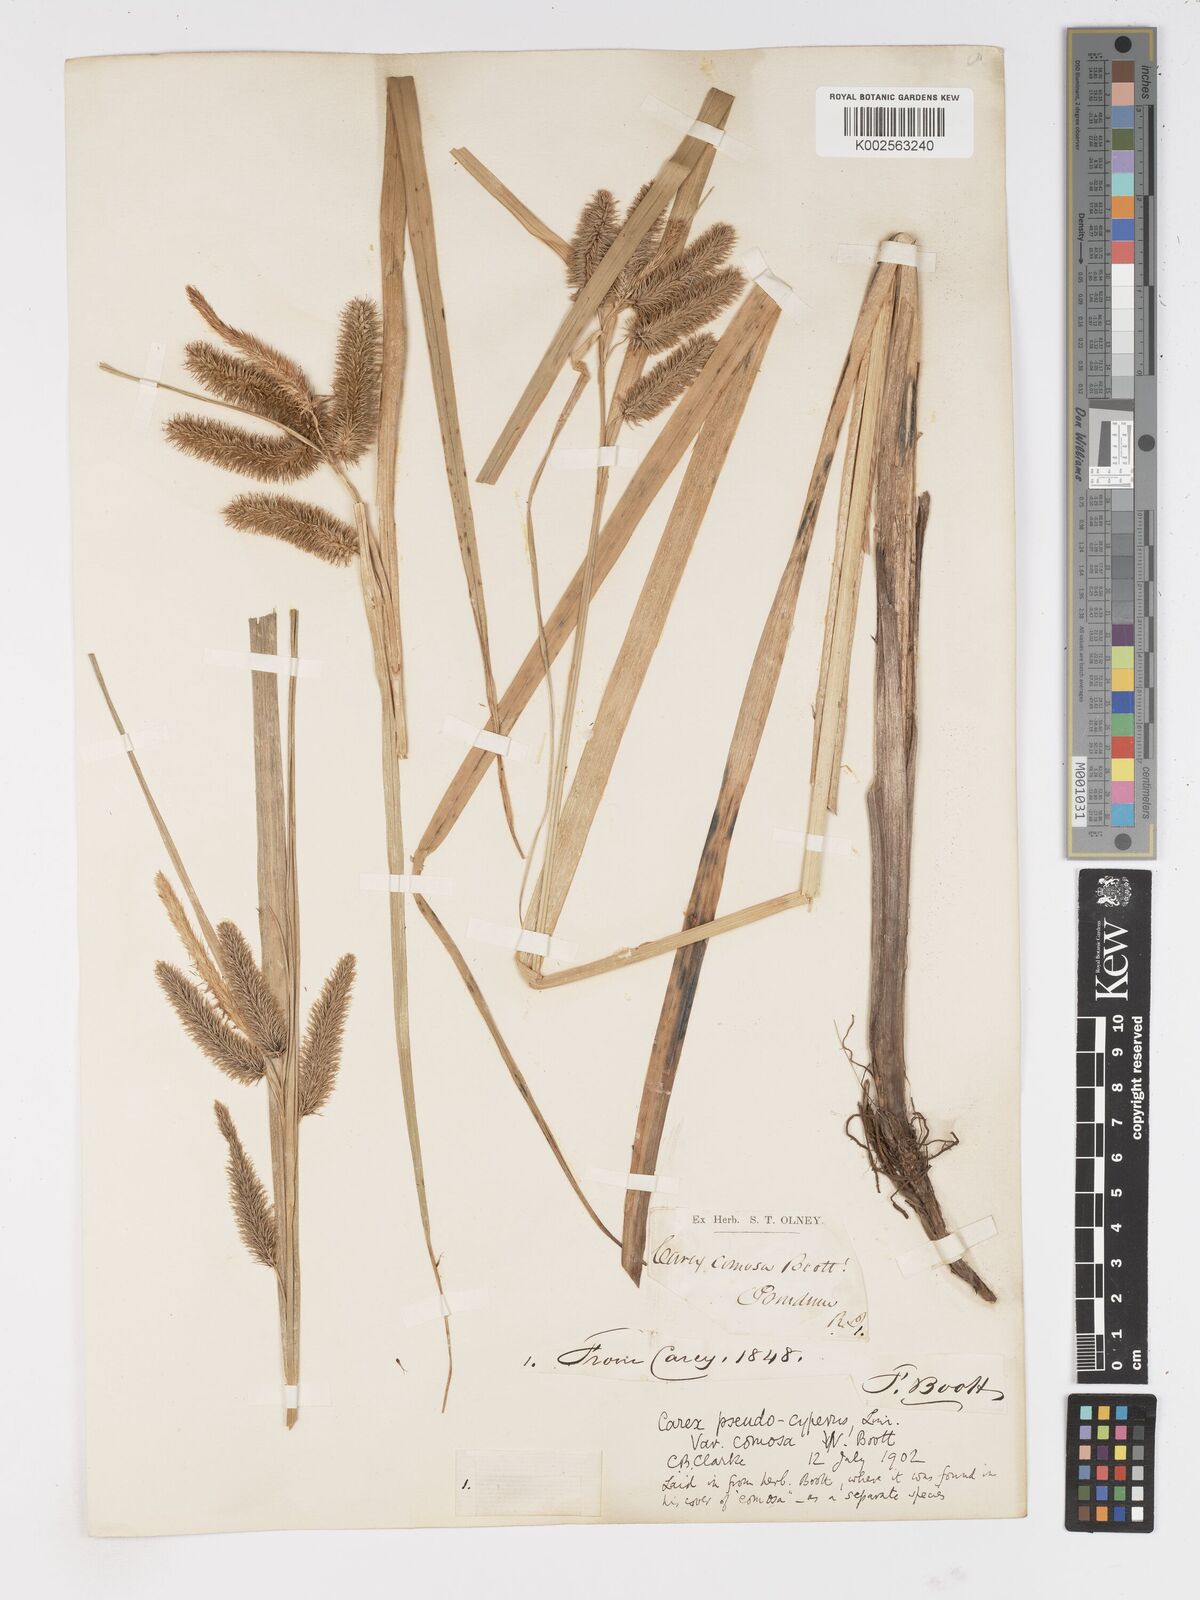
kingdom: Plantae
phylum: Tracheophyta
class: Liliopsida
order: Poales
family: Cyperaceae
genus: Carex
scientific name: Carex comosa
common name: Bristly sedge
